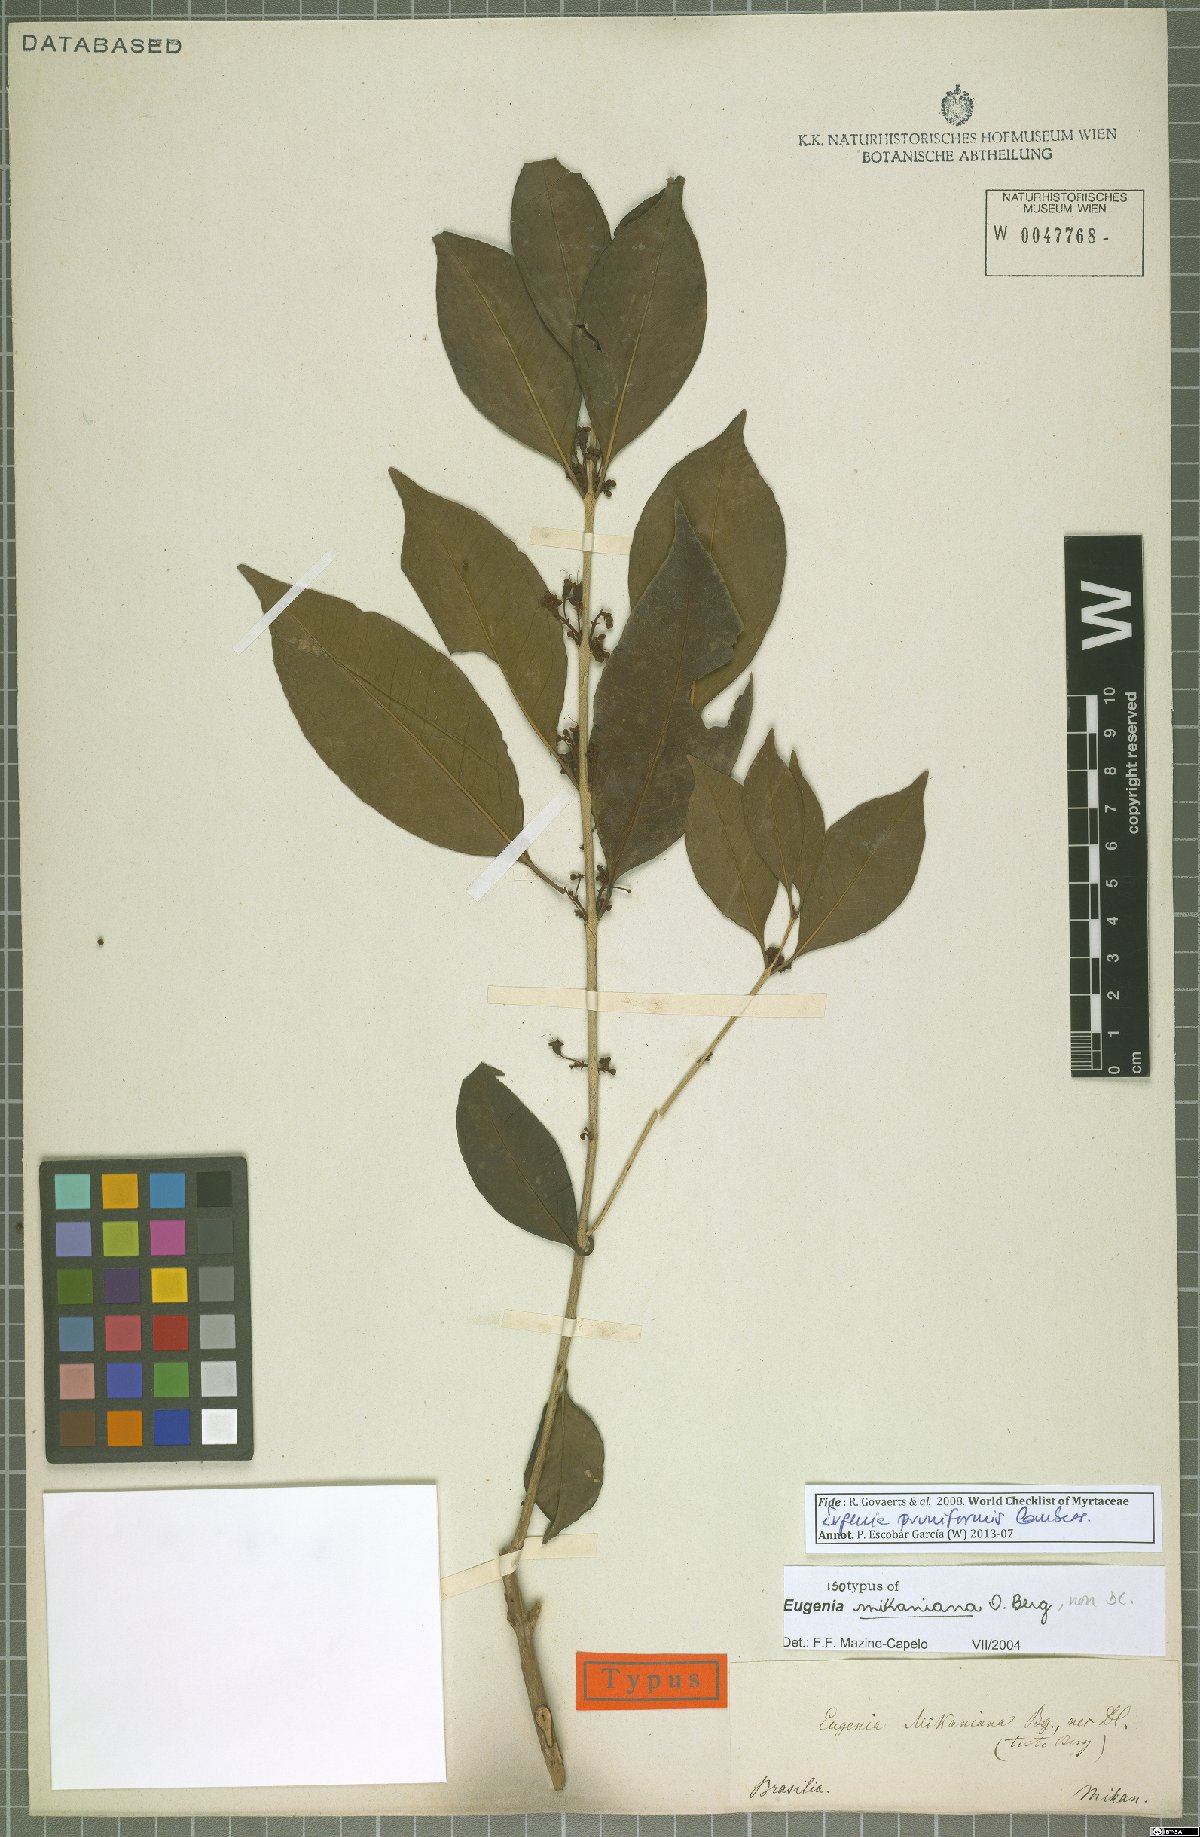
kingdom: Plantae
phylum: Tracheophyta
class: Magnoliopsida
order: Myrtales
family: Myrtaceae
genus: Eugenia
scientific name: Eugenia pruniformis
